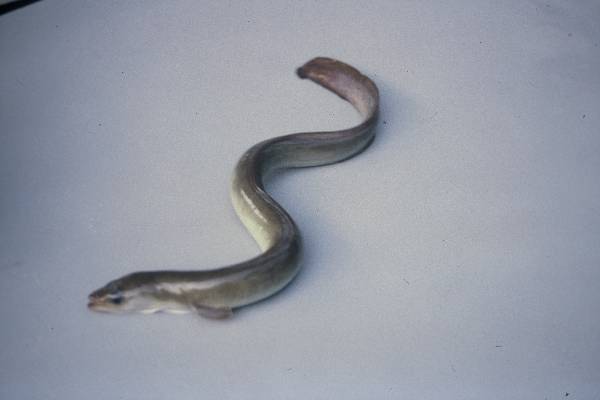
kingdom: Animalia
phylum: Chordata
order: Anguilliformes
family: Anguillidae
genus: Anguilla
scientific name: Anguilla mossambica
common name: African longfin eel
